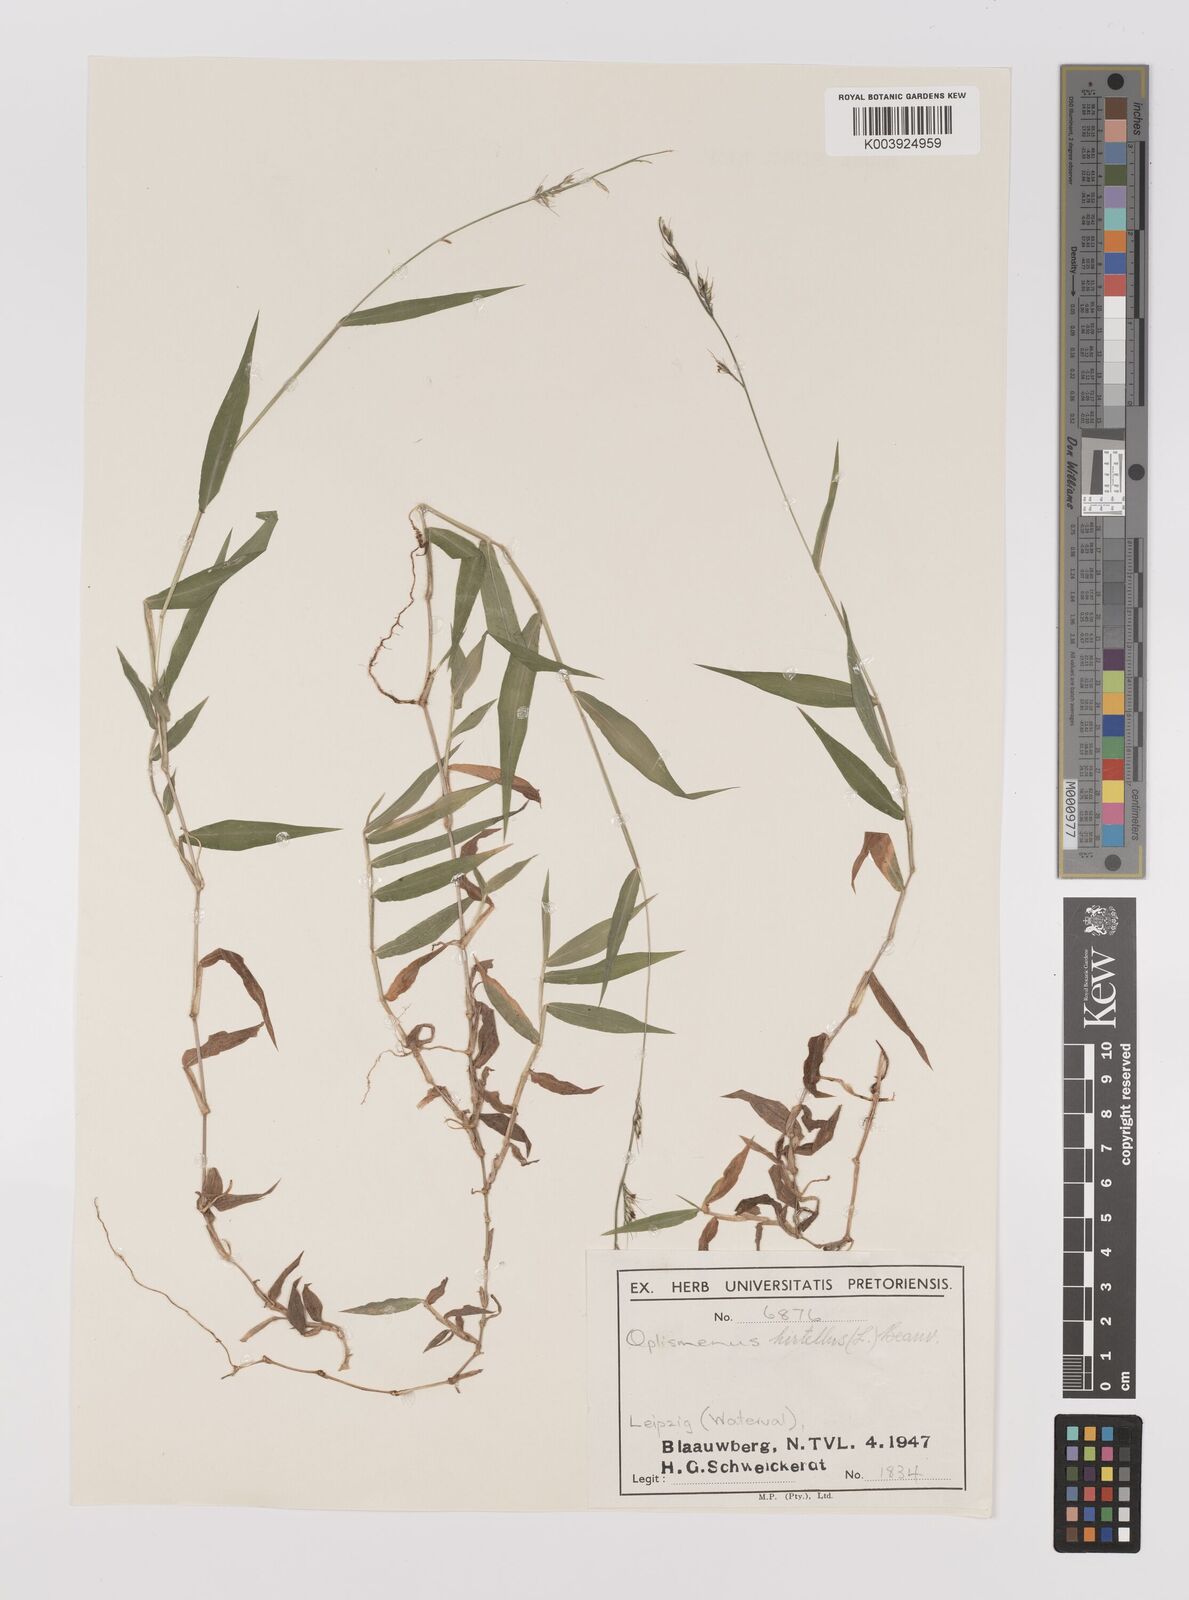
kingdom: Plantae
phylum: Tracheophyta
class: Liliopsida
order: Poales
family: Poaceae
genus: Oplismenus
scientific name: Oplismenus hirtellus
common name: Basketgrass
